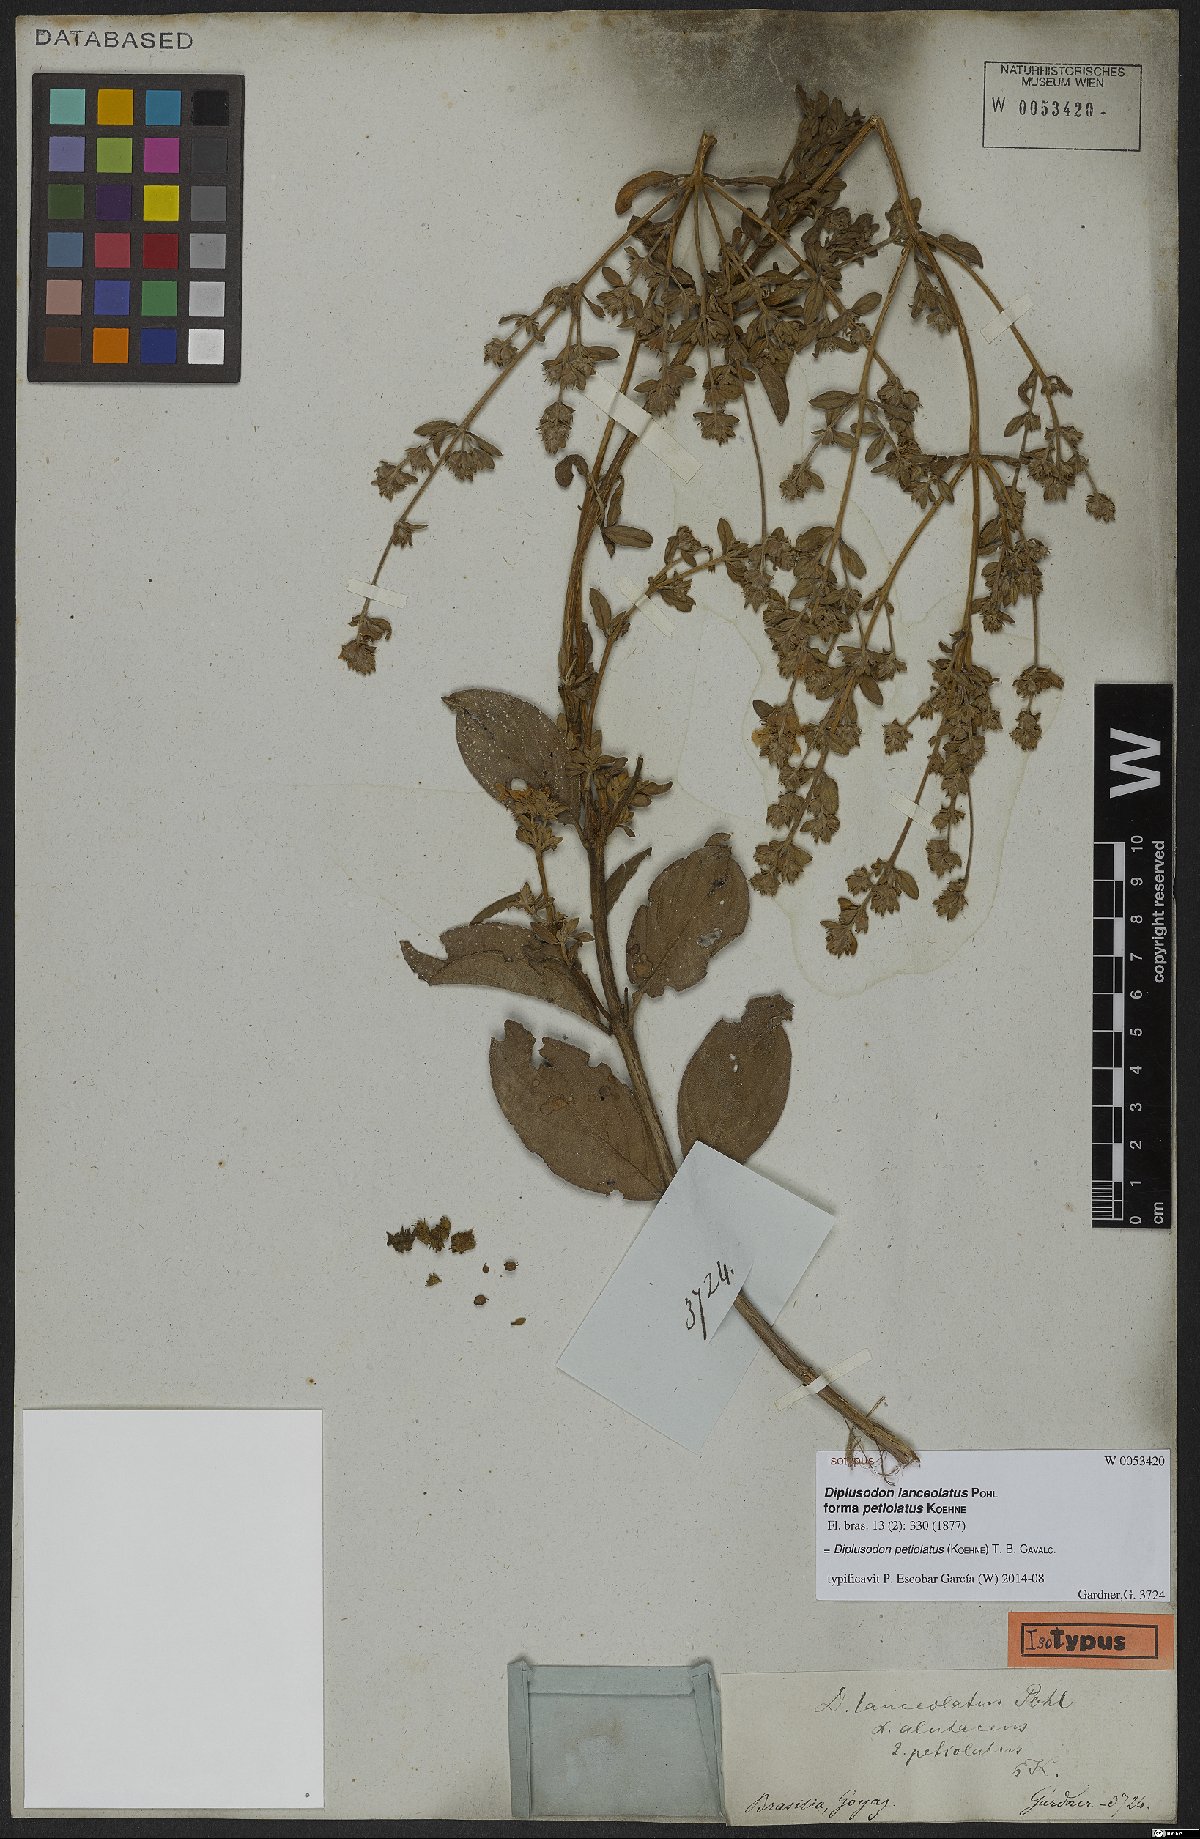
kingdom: Plantae
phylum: Tracheophyta
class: Magnoliopsida
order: Myrtales
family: Lythraceae
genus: Diplusodon
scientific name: Diplusodon petiolatus
